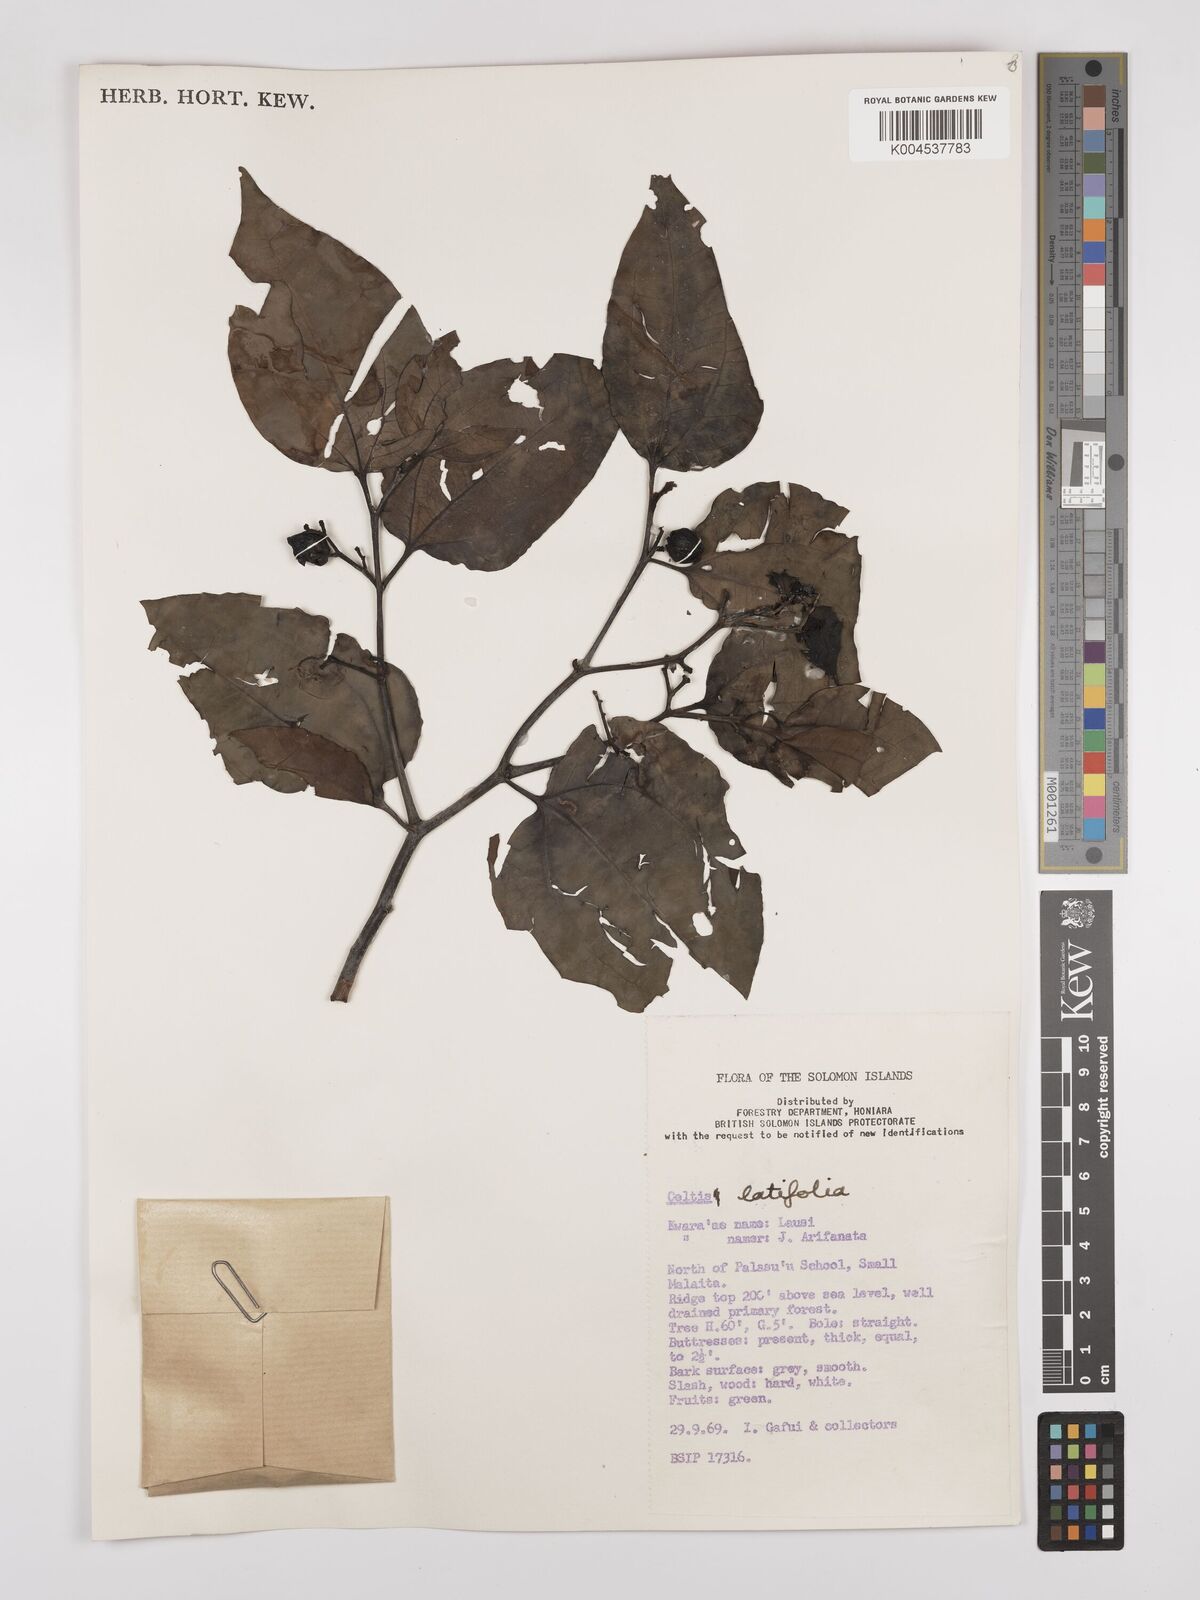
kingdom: Plantae
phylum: Tracheophyta
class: Magnoliopsida
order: Rosales
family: Cannabaceae
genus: Celtis
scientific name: Celtis latifolia
